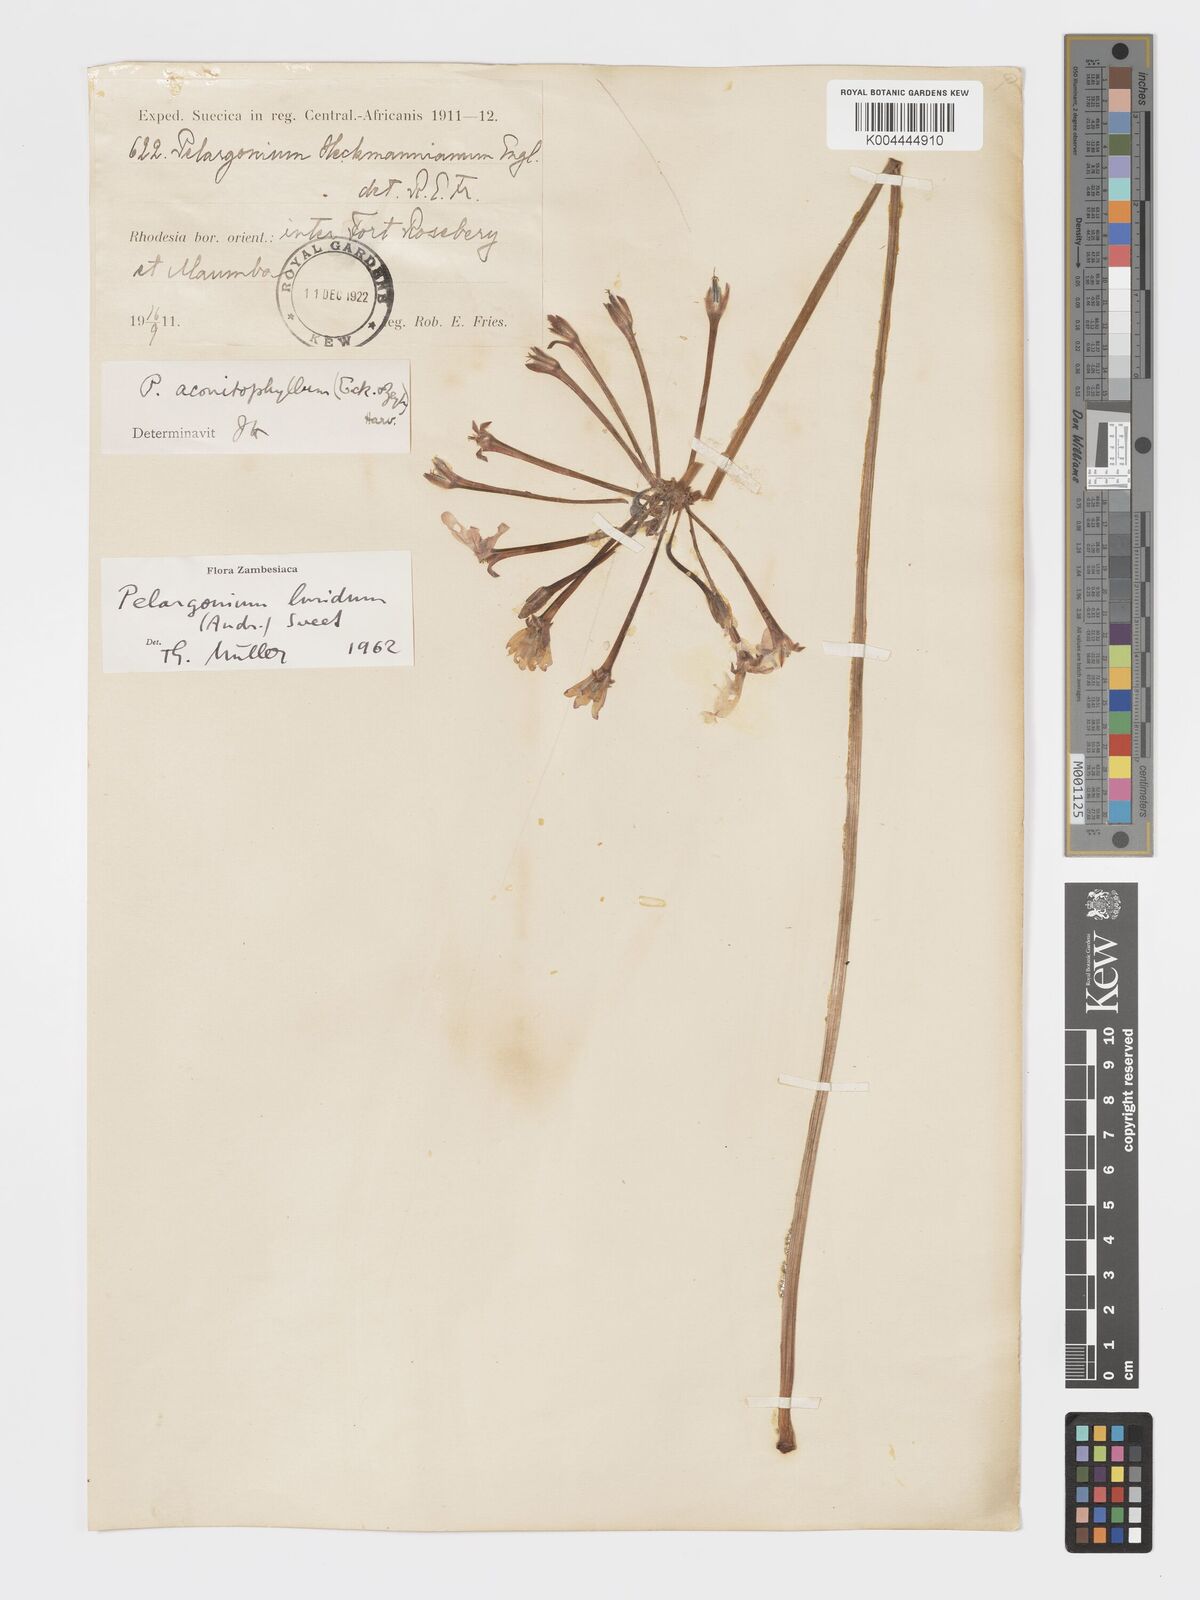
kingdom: Plantae
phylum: Tracheophyta
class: Magnoliopsida
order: Geraniales
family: Geraniaceae
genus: Pelargonium
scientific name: Pelargonium luridum
